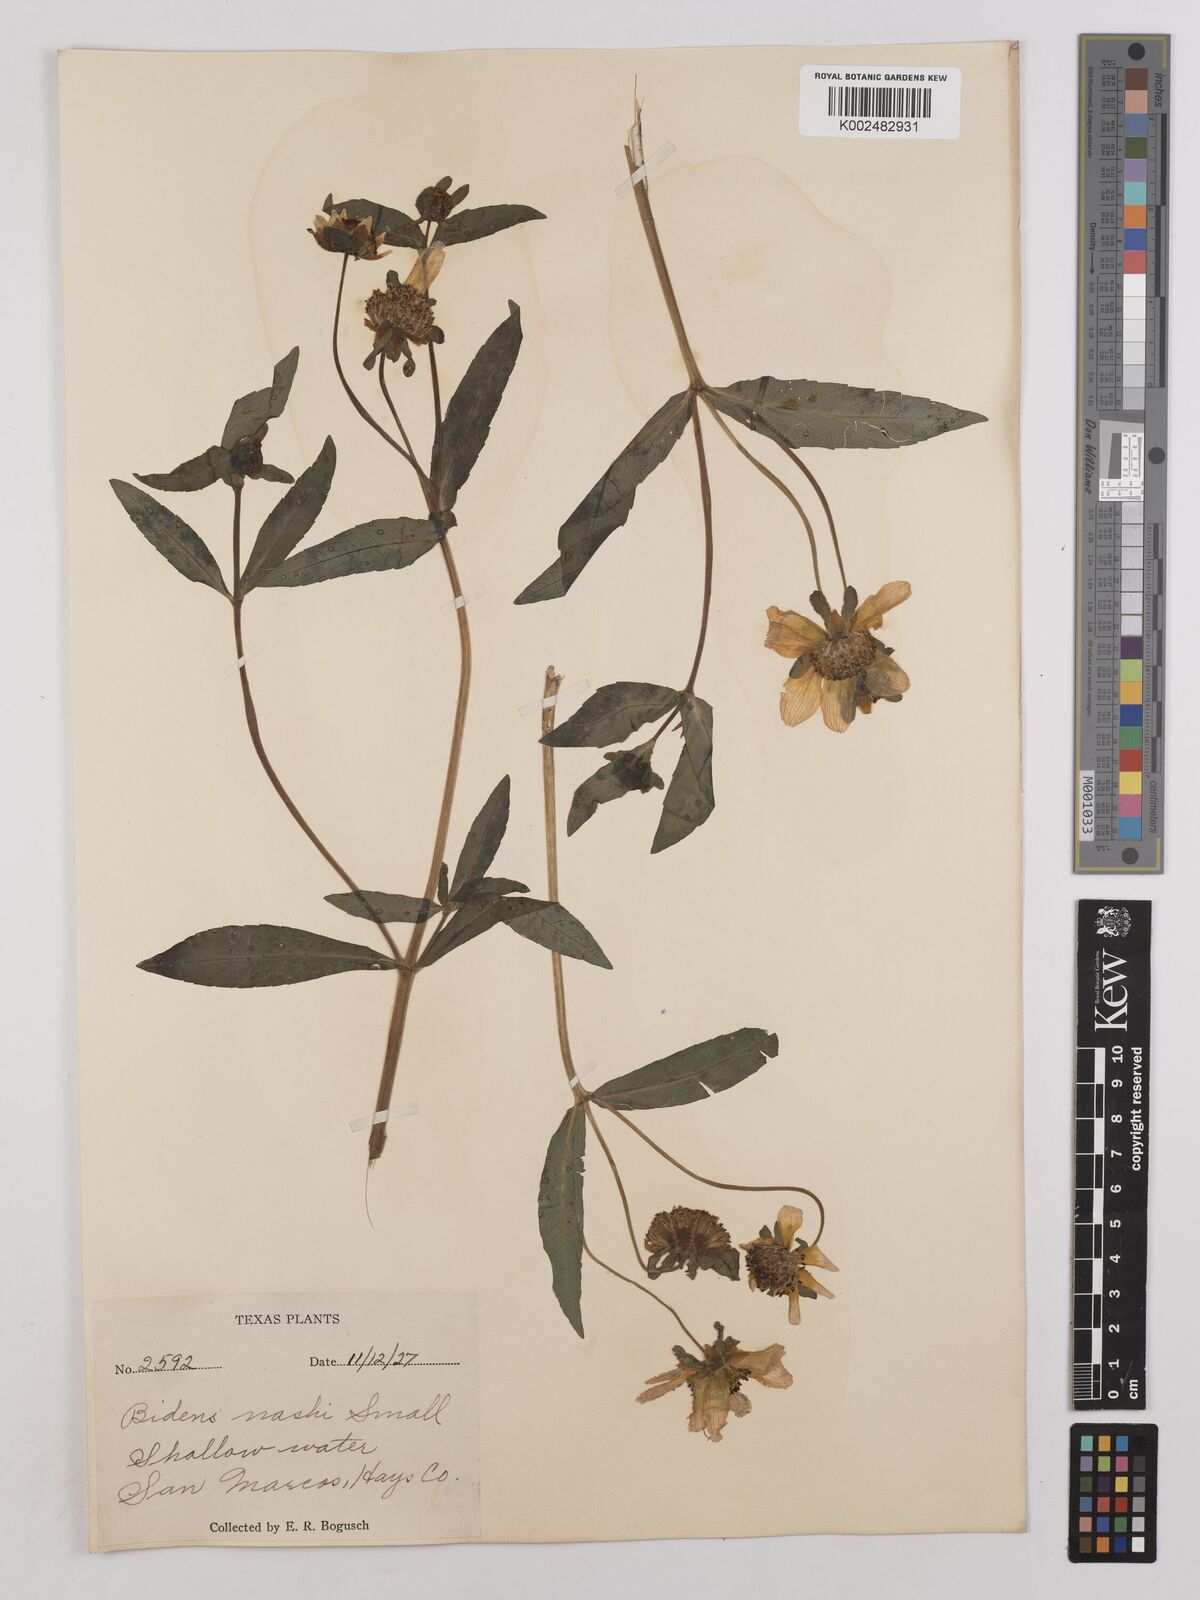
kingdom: Plantae
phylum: Tracheophyta
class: Magnoliopsida
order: Asterales
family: Asteraceae
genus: Bidens
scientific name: Bidens
